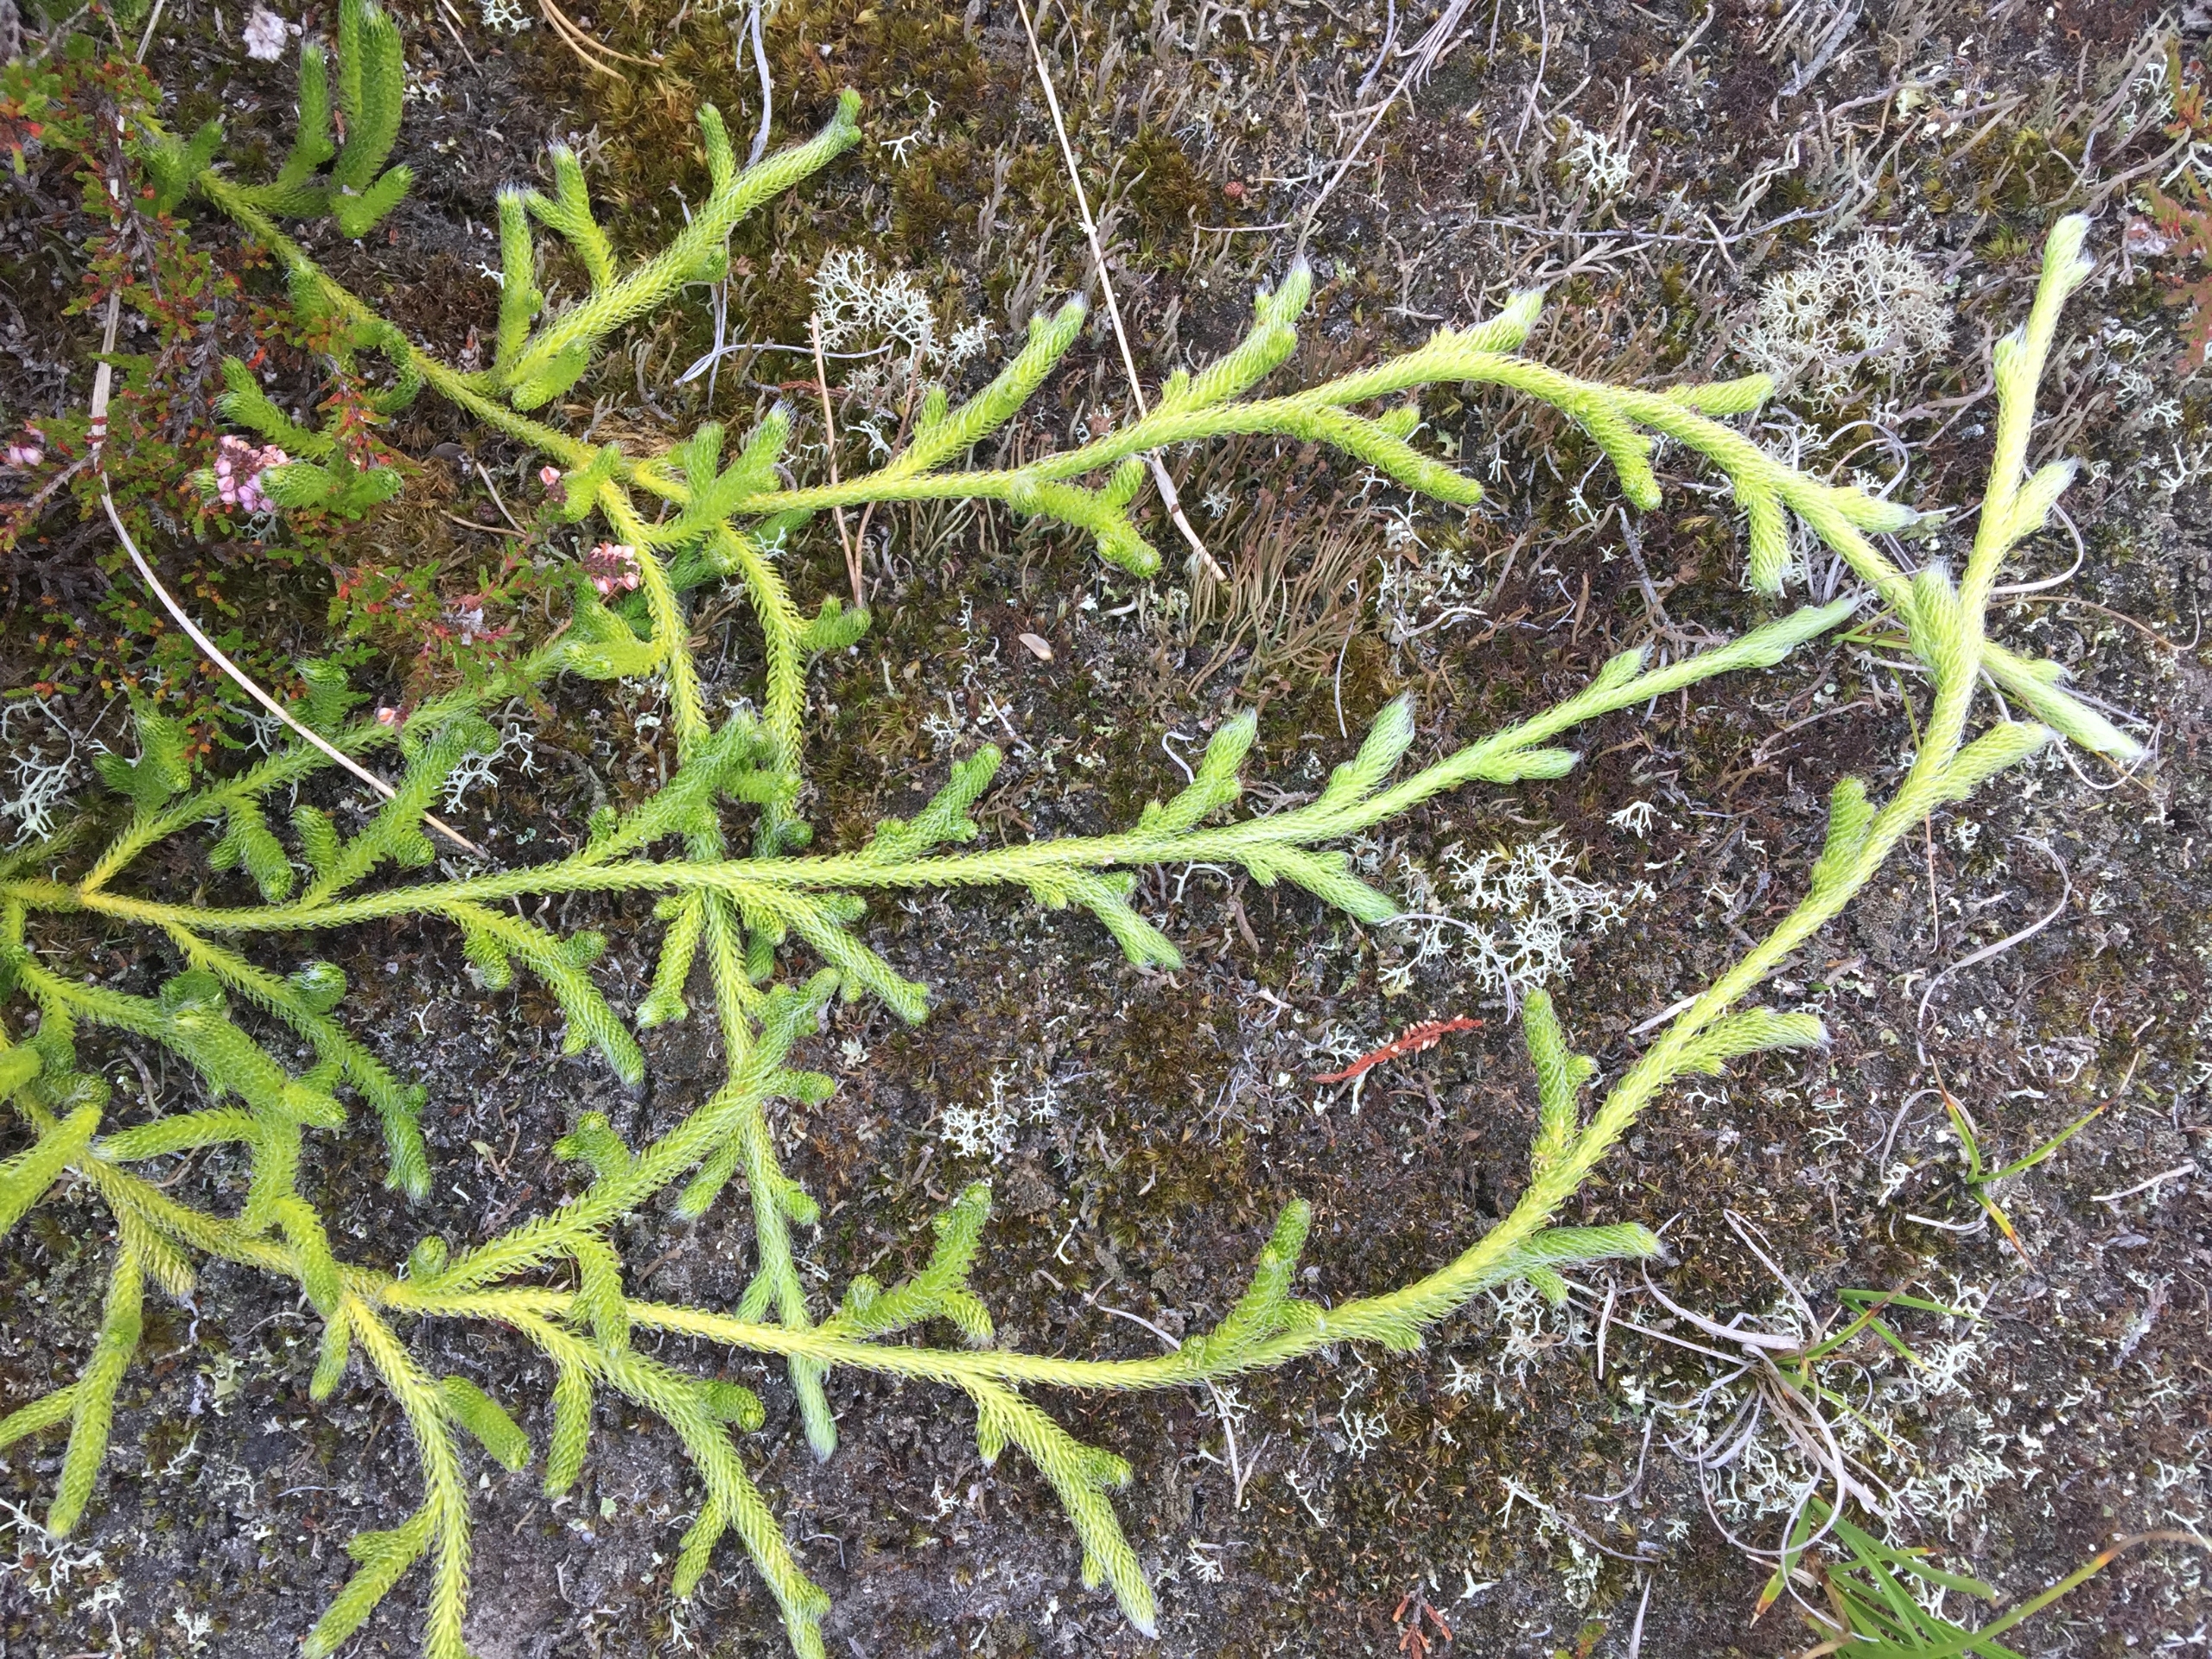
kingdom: Plantae
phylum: Tracheophyta
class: Lycopodiopsida
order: Lycopodiales
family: Lycopodiaceae
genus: Lycopodium
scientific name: Lycopodium clavatum
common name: Almindelig ulvefod
